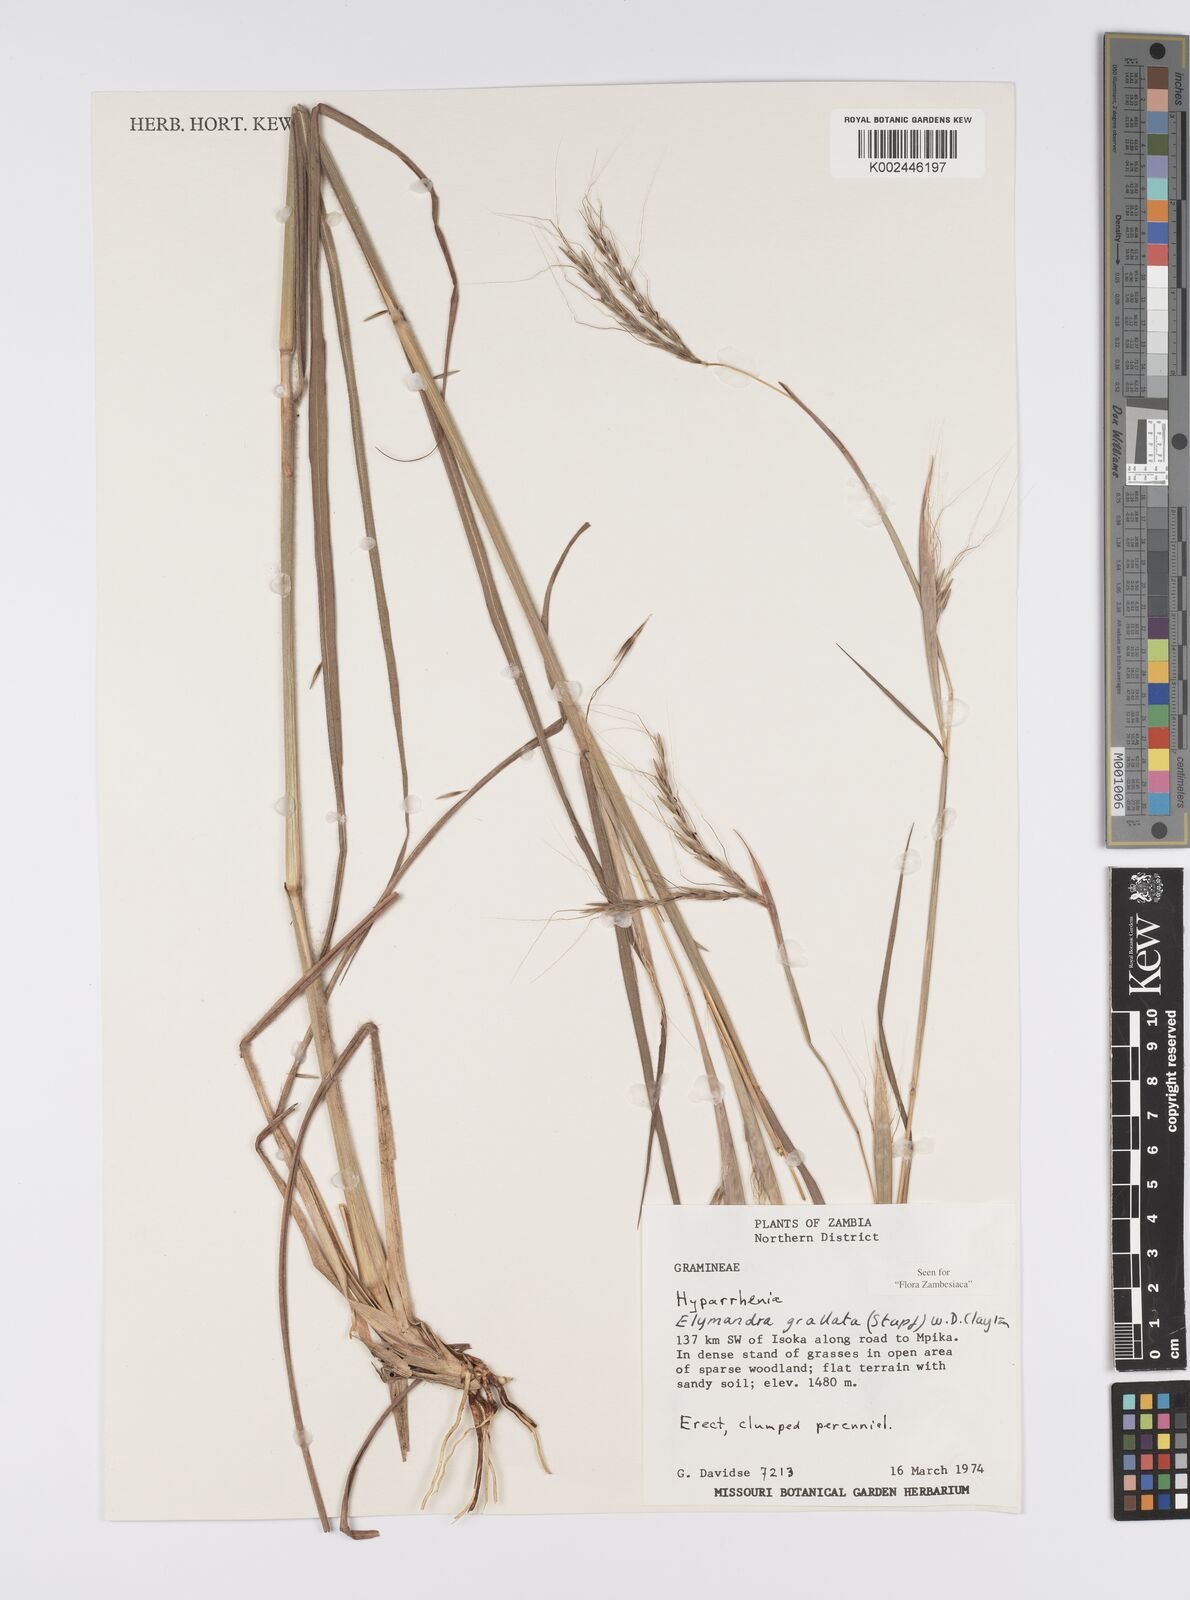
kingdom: Plantae
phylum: Tracheophyta
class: Liliopsida
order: Poales
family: Poaceae
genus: Elymandra
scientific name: Elymandra grallata
